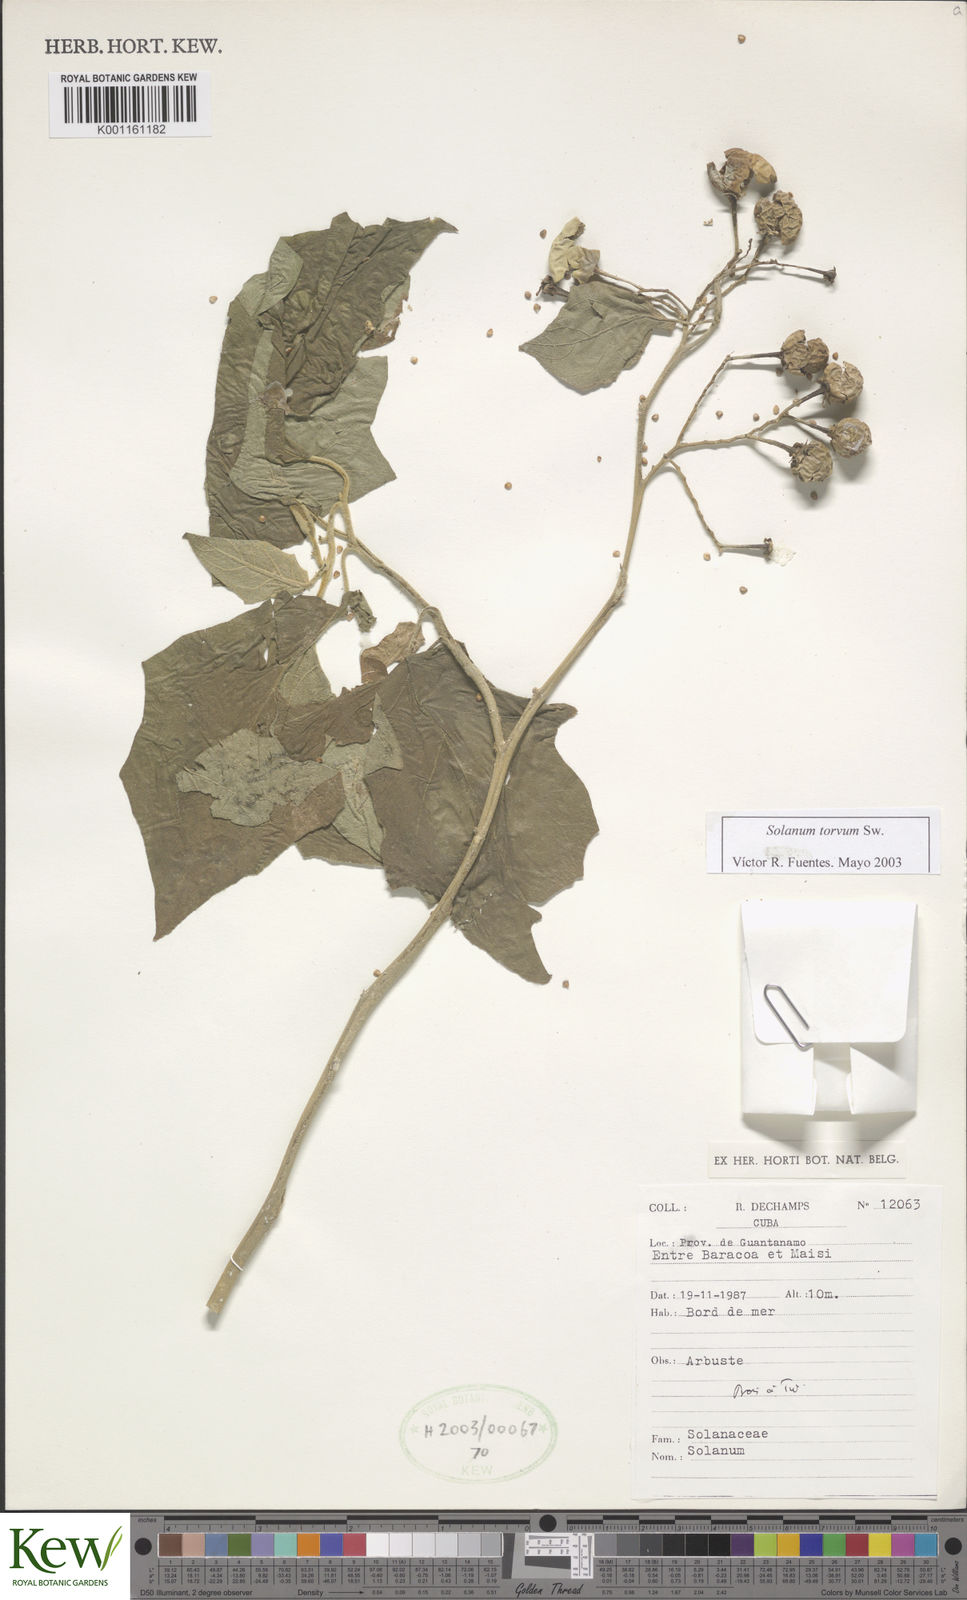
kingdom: Plantae
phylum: Tracheophyta
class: Magnoliopsida
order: Solanales
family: Solanaceae
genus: Solanum
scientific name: Solanum torvum
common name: Turkey berry
